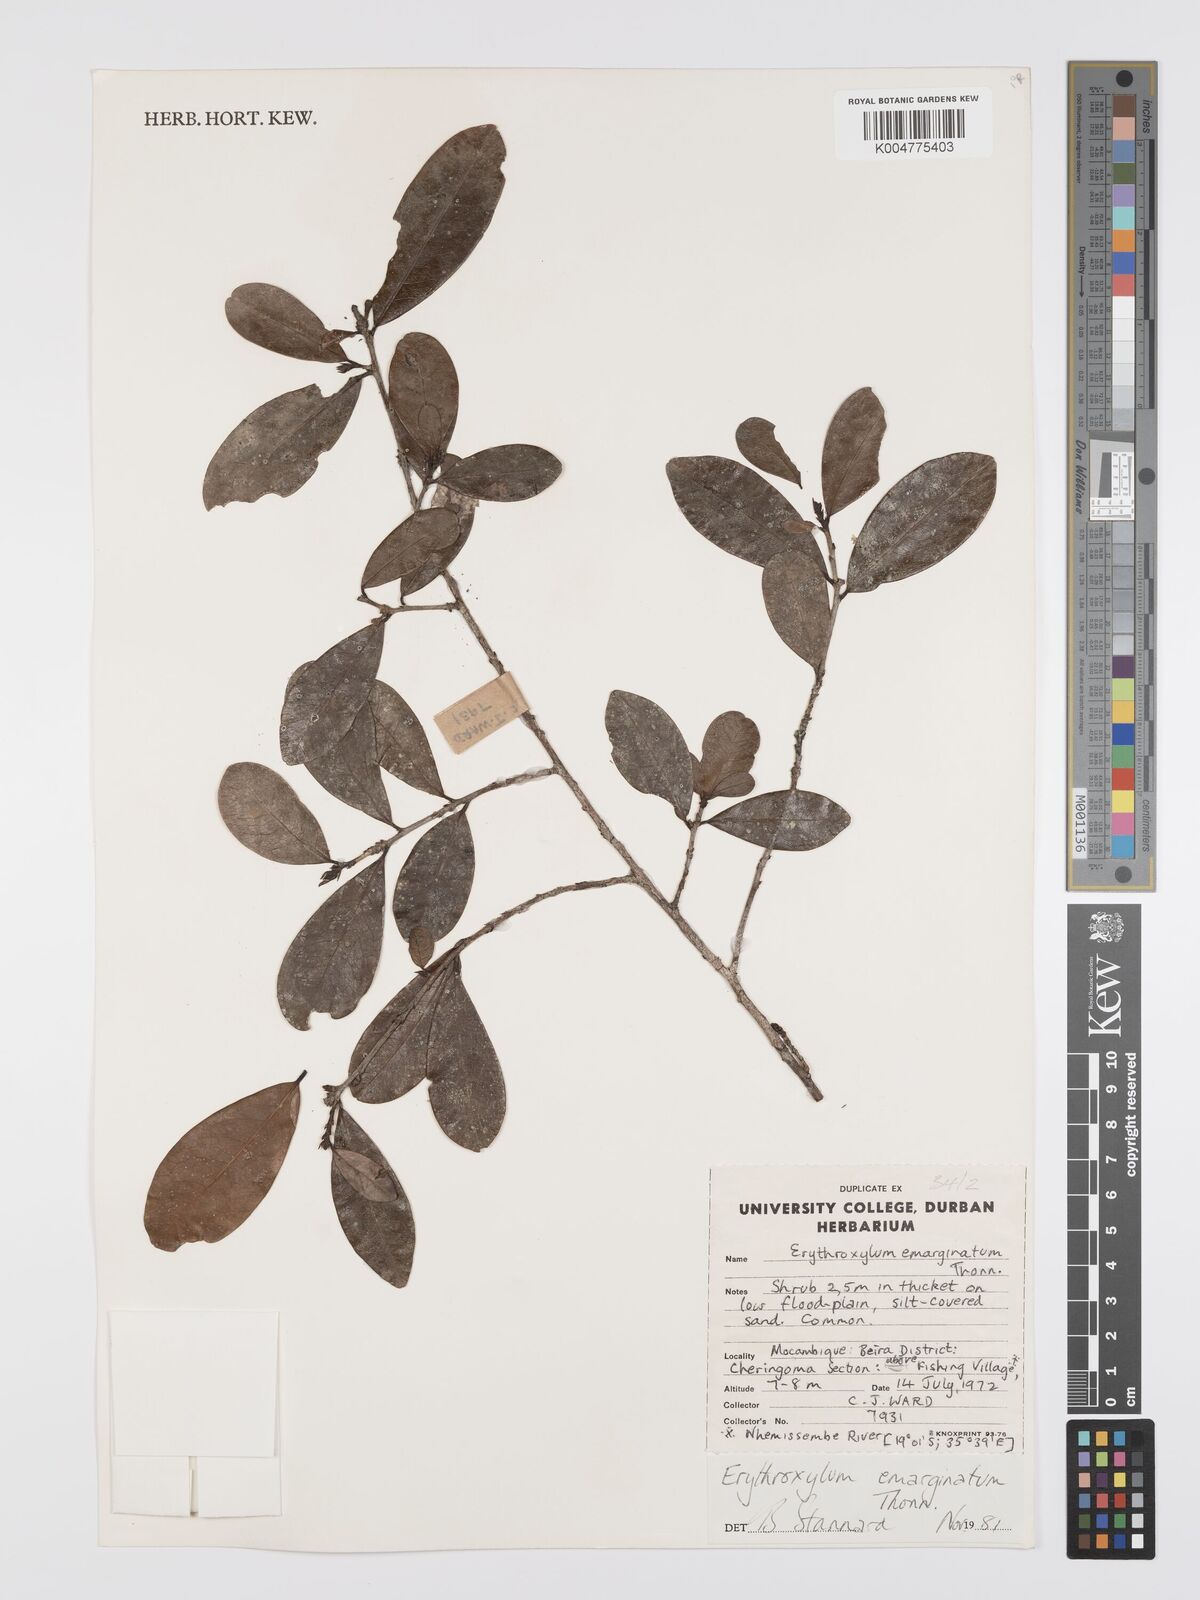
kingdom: Plantae
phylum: Tracheophyta
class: Magnoliopsida
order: Malpighiales
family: Erythroxylaceae
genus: Erythroxylum
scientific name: Erythroxylum emarginatum
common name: African coca-tree
